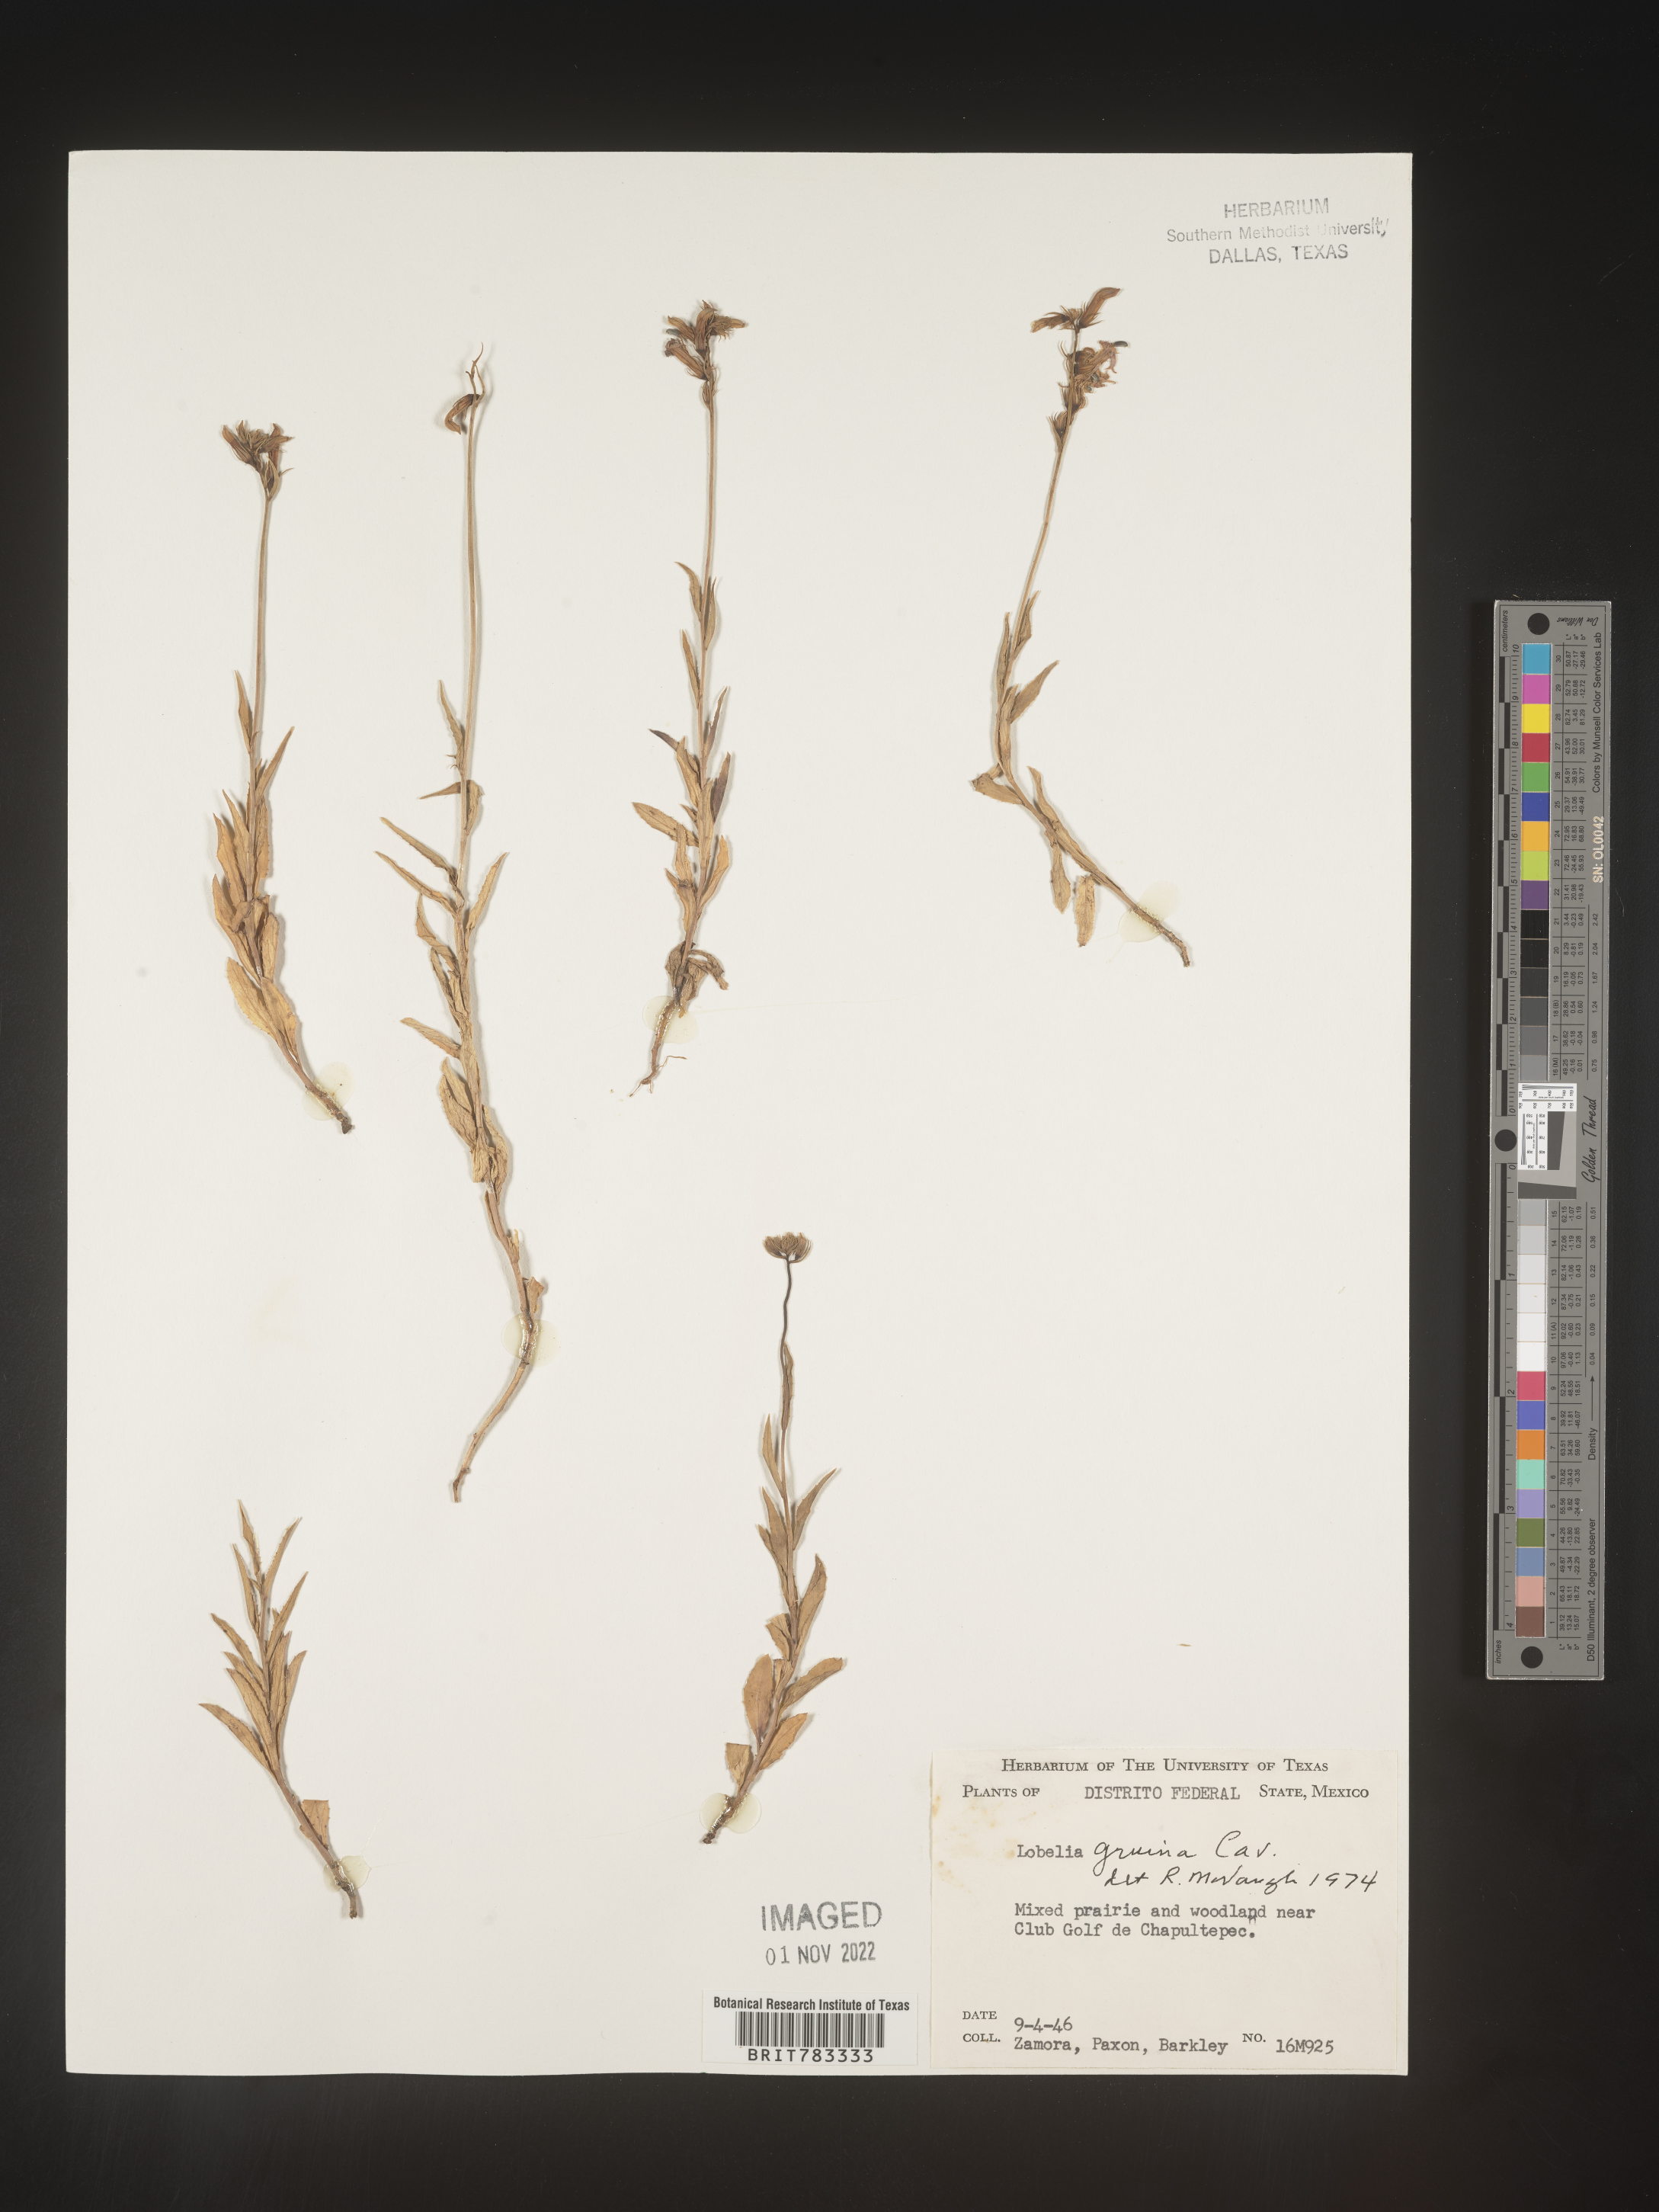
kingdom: Plantae
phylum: Tracheophyta
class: Magnoliopsida
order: Asterales
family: Campanulaceae
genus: Lobelia
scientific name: Lobelia
